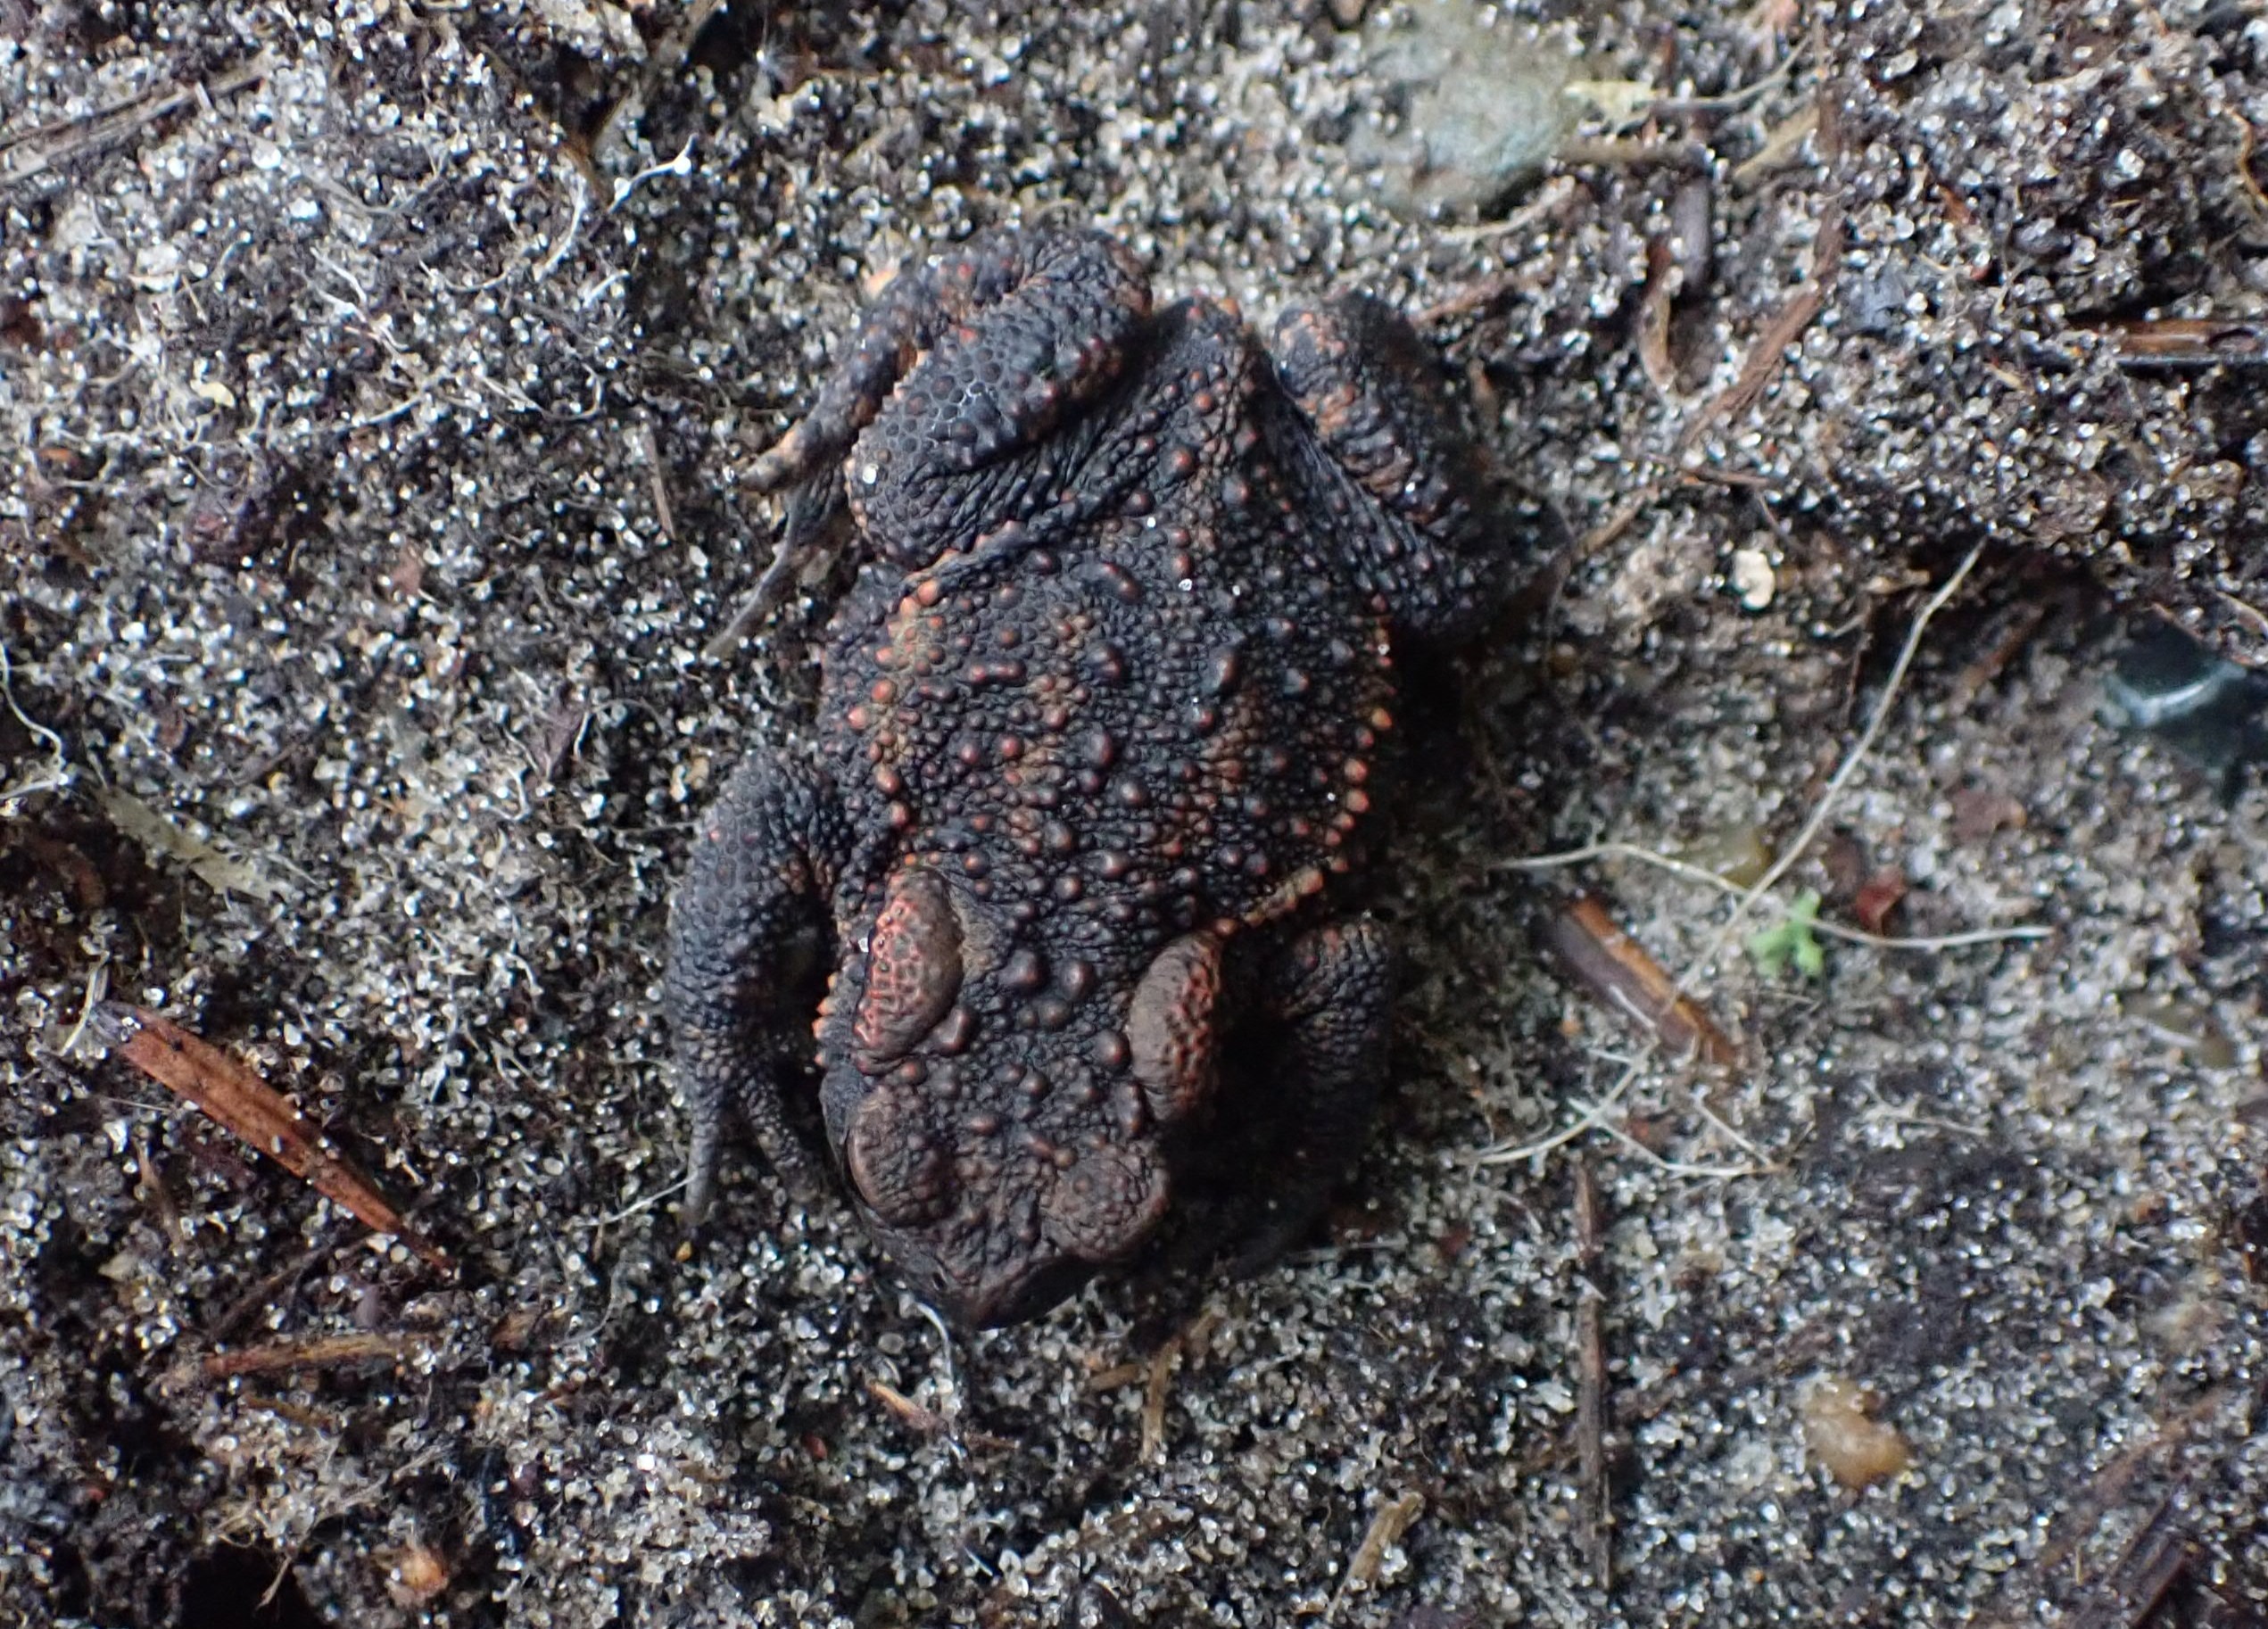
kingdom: Animalia
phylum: Chordata
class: Amphibia
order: Anura
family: Bufonidae
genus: Bufo
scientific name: Bufo bufo
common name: Skrubtudse
